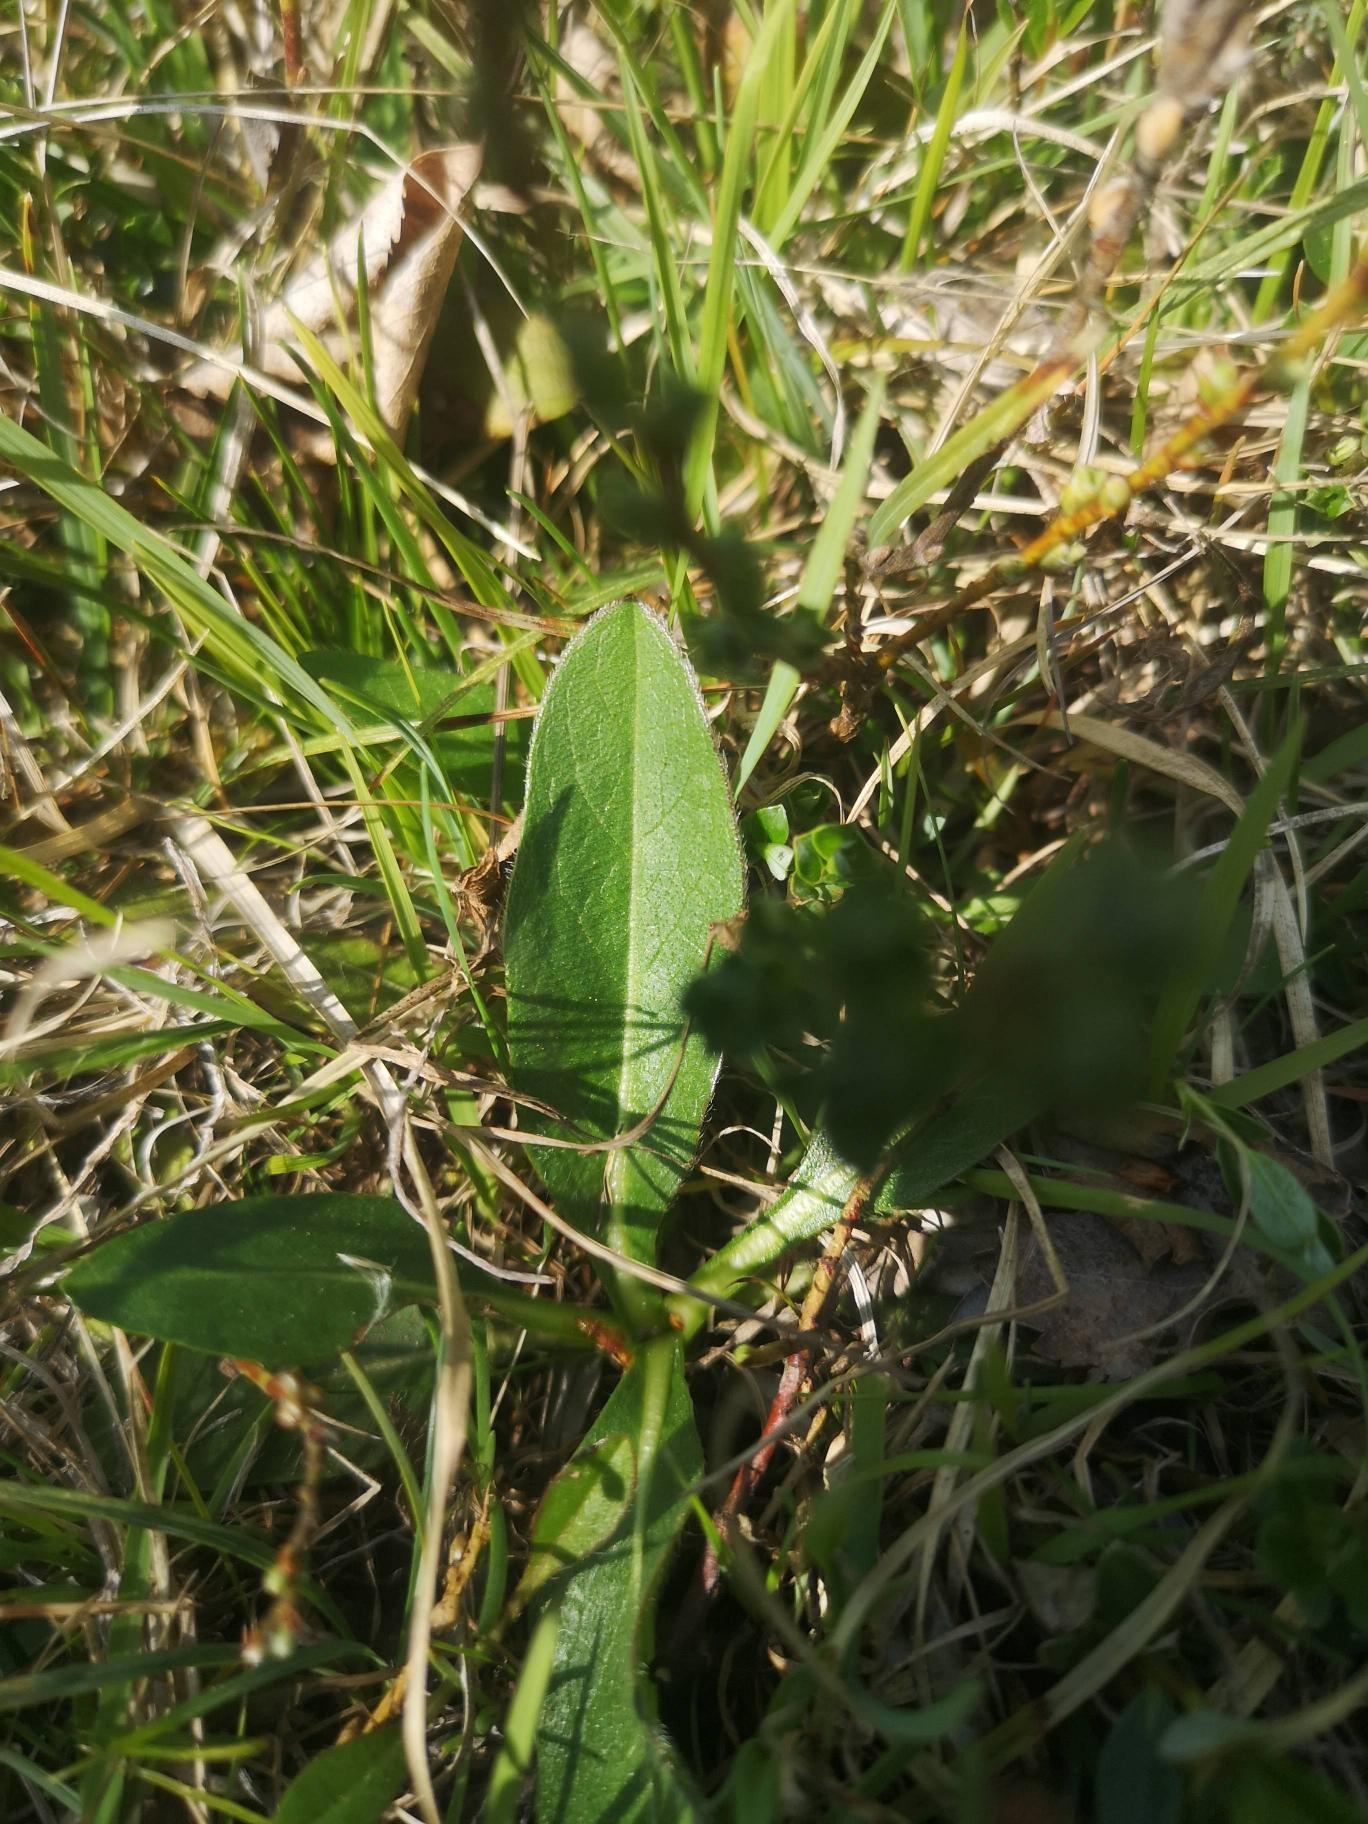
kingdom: Plantae
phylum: Tracheophyta
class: Magnoliopsida
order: Dipsacales
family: Caprifoliaceae
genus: Succisa
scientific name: Succisa pratensis
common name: Djævelsbid
